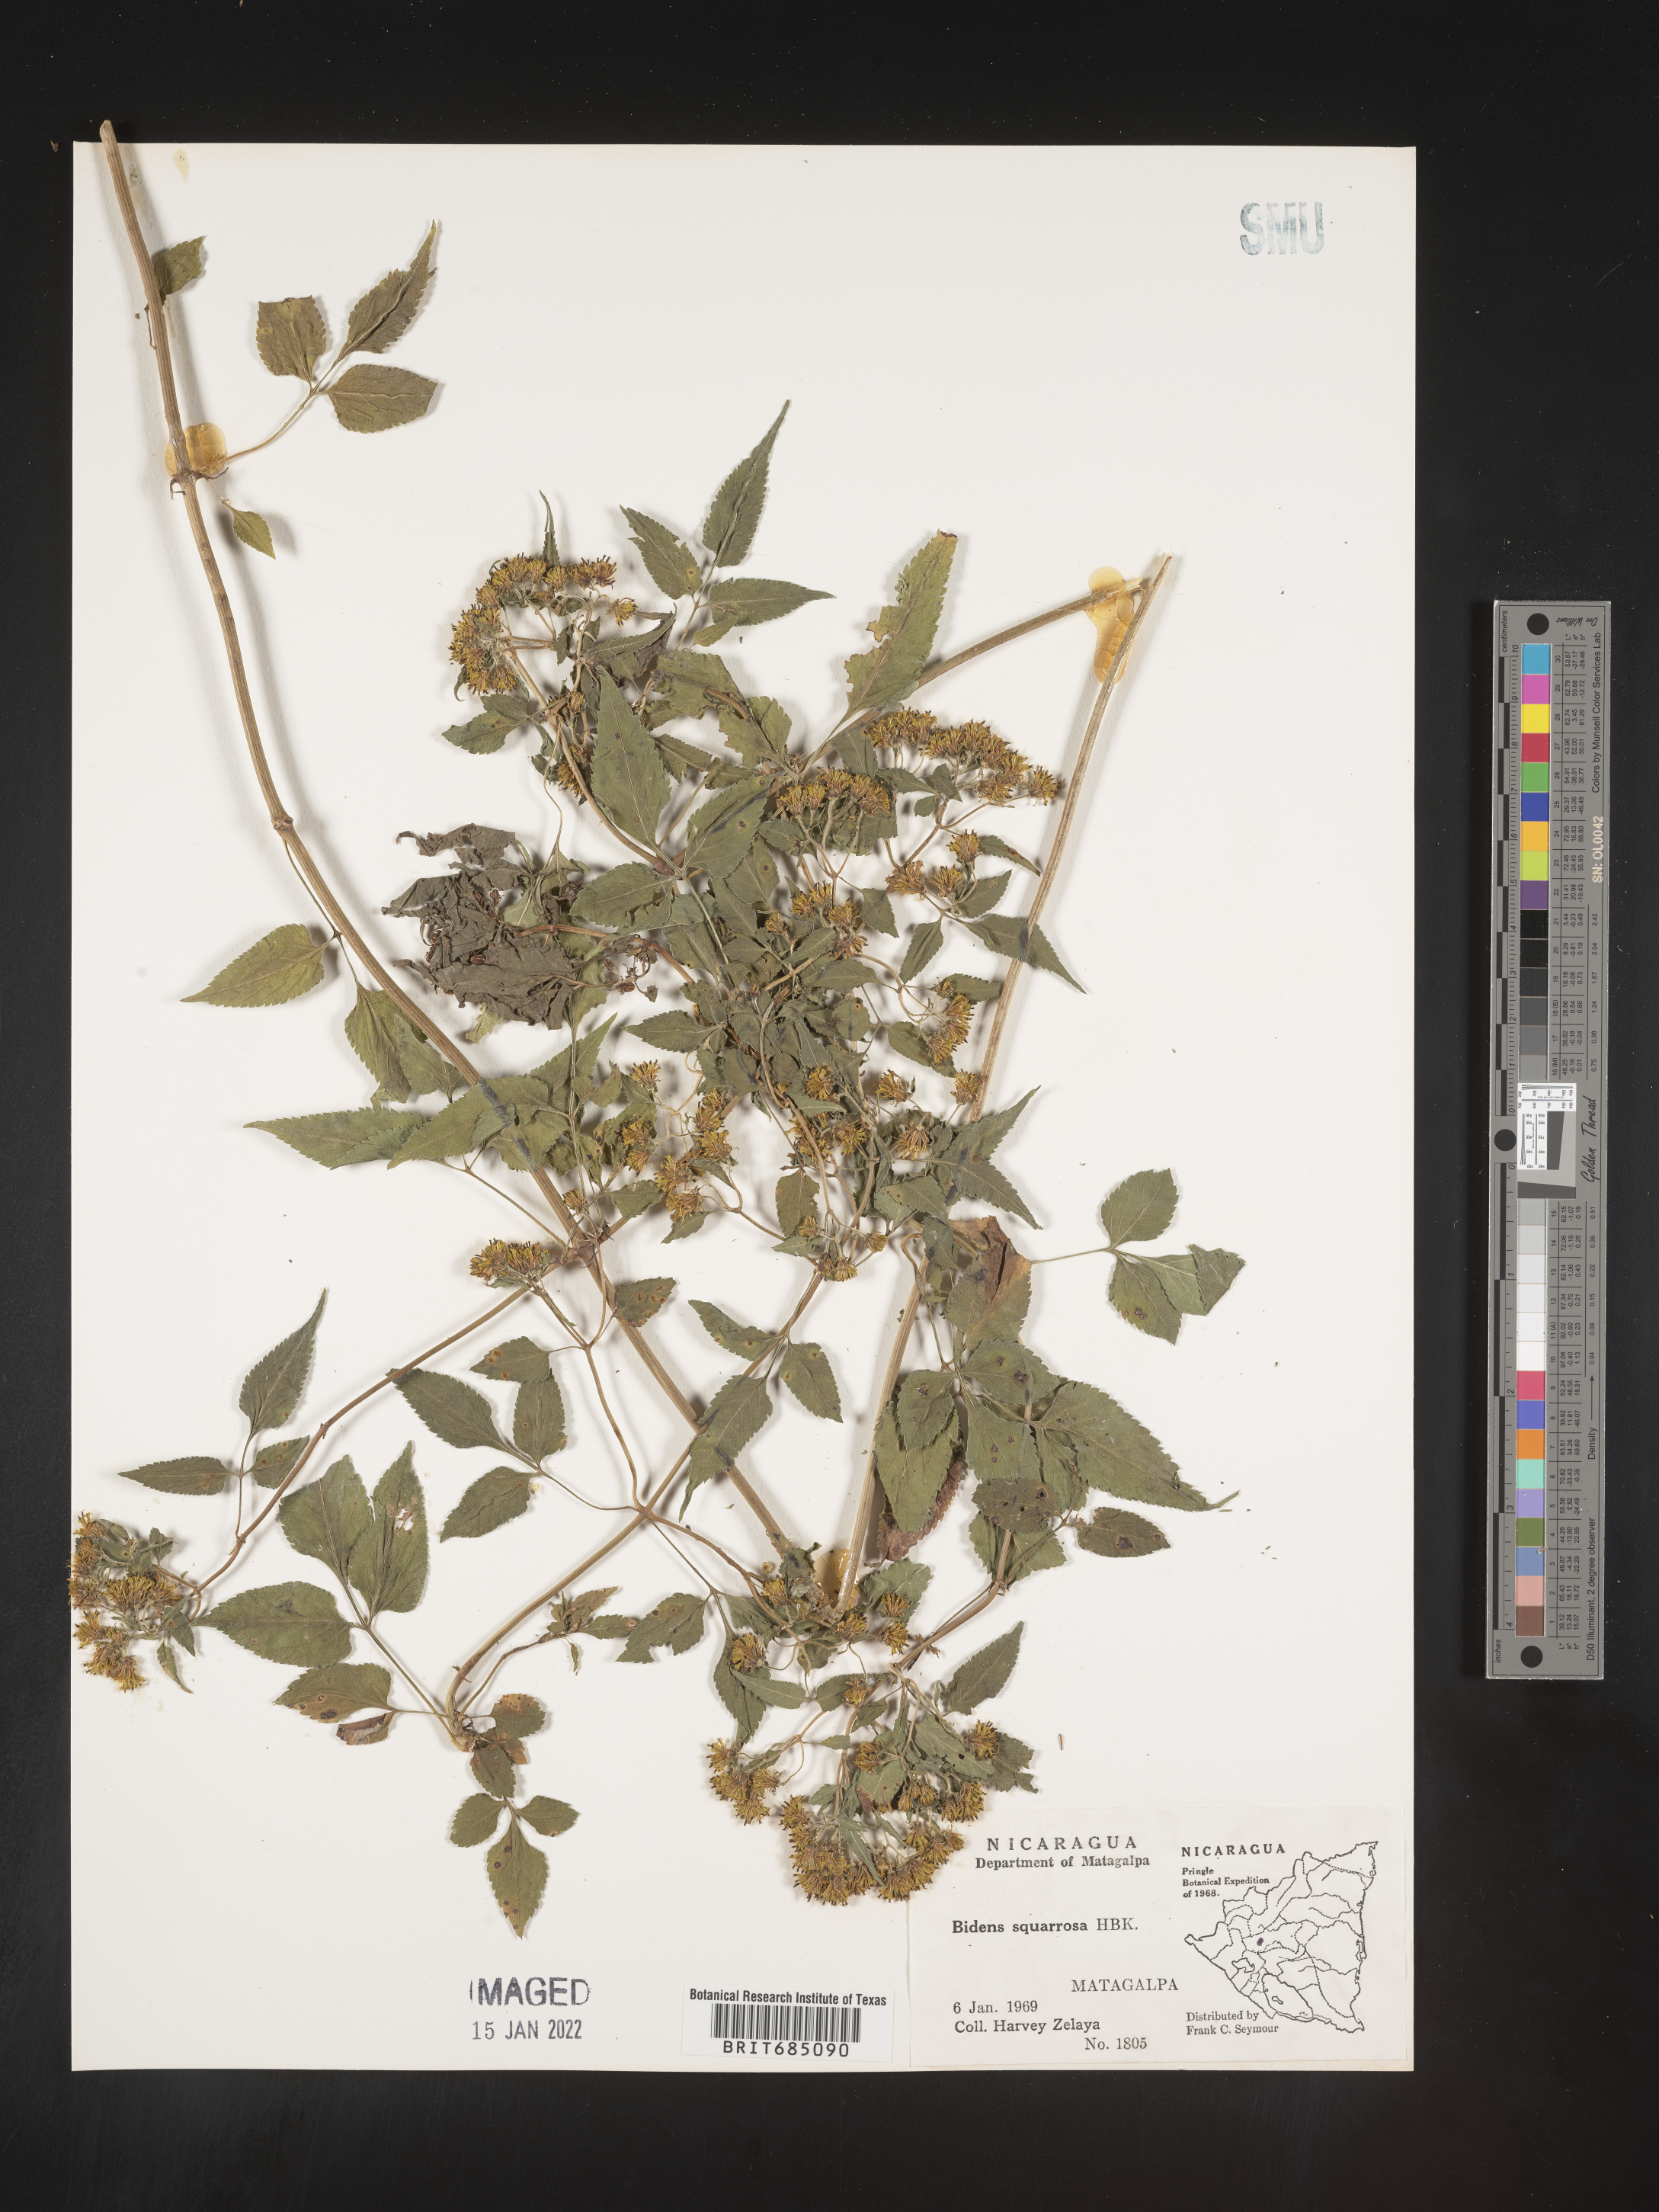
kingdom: Plantae
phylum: Tracheophyta
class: Magnoliopsida
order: Asterales
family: Asteraceae
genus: Bidens
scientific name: Bidens rubicundula
